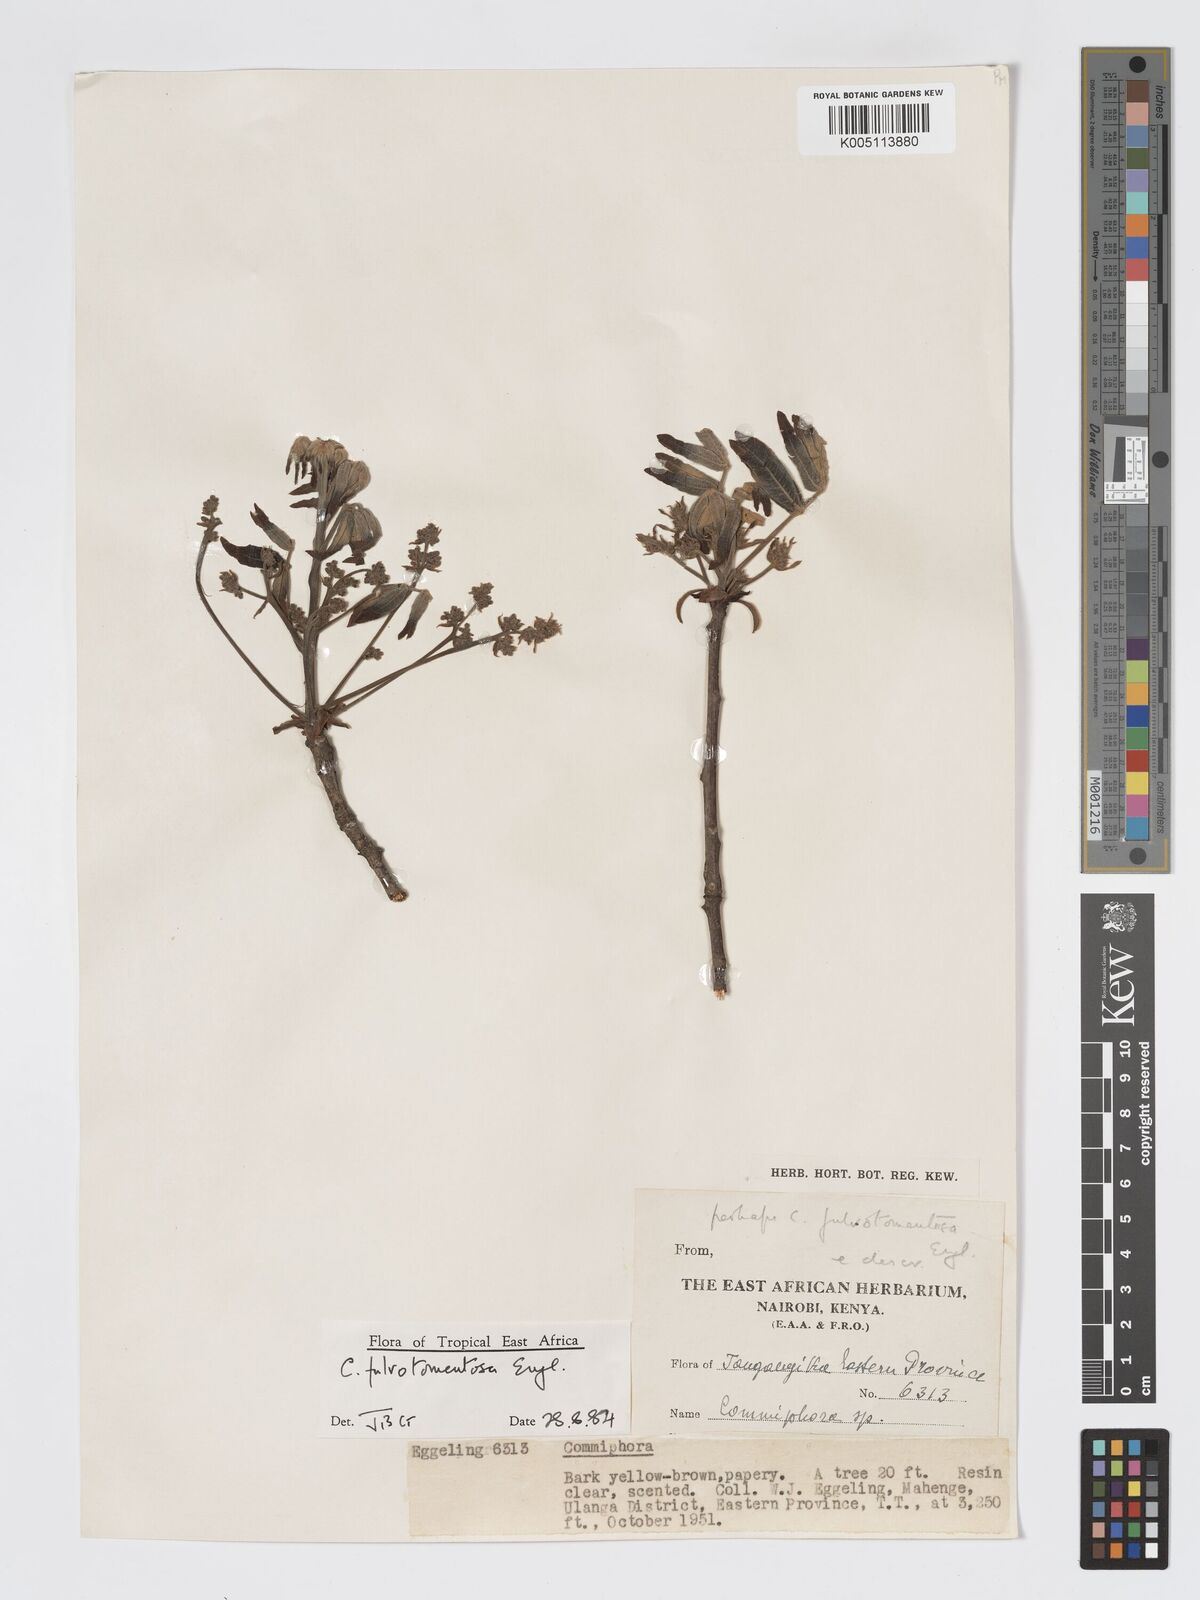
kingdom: Plantae
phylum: Tracheophyta
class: Magnoliopsida
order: Sapindales
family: Burseraceae
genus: Commiphora
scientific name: Commiphora fulvotomentosa
